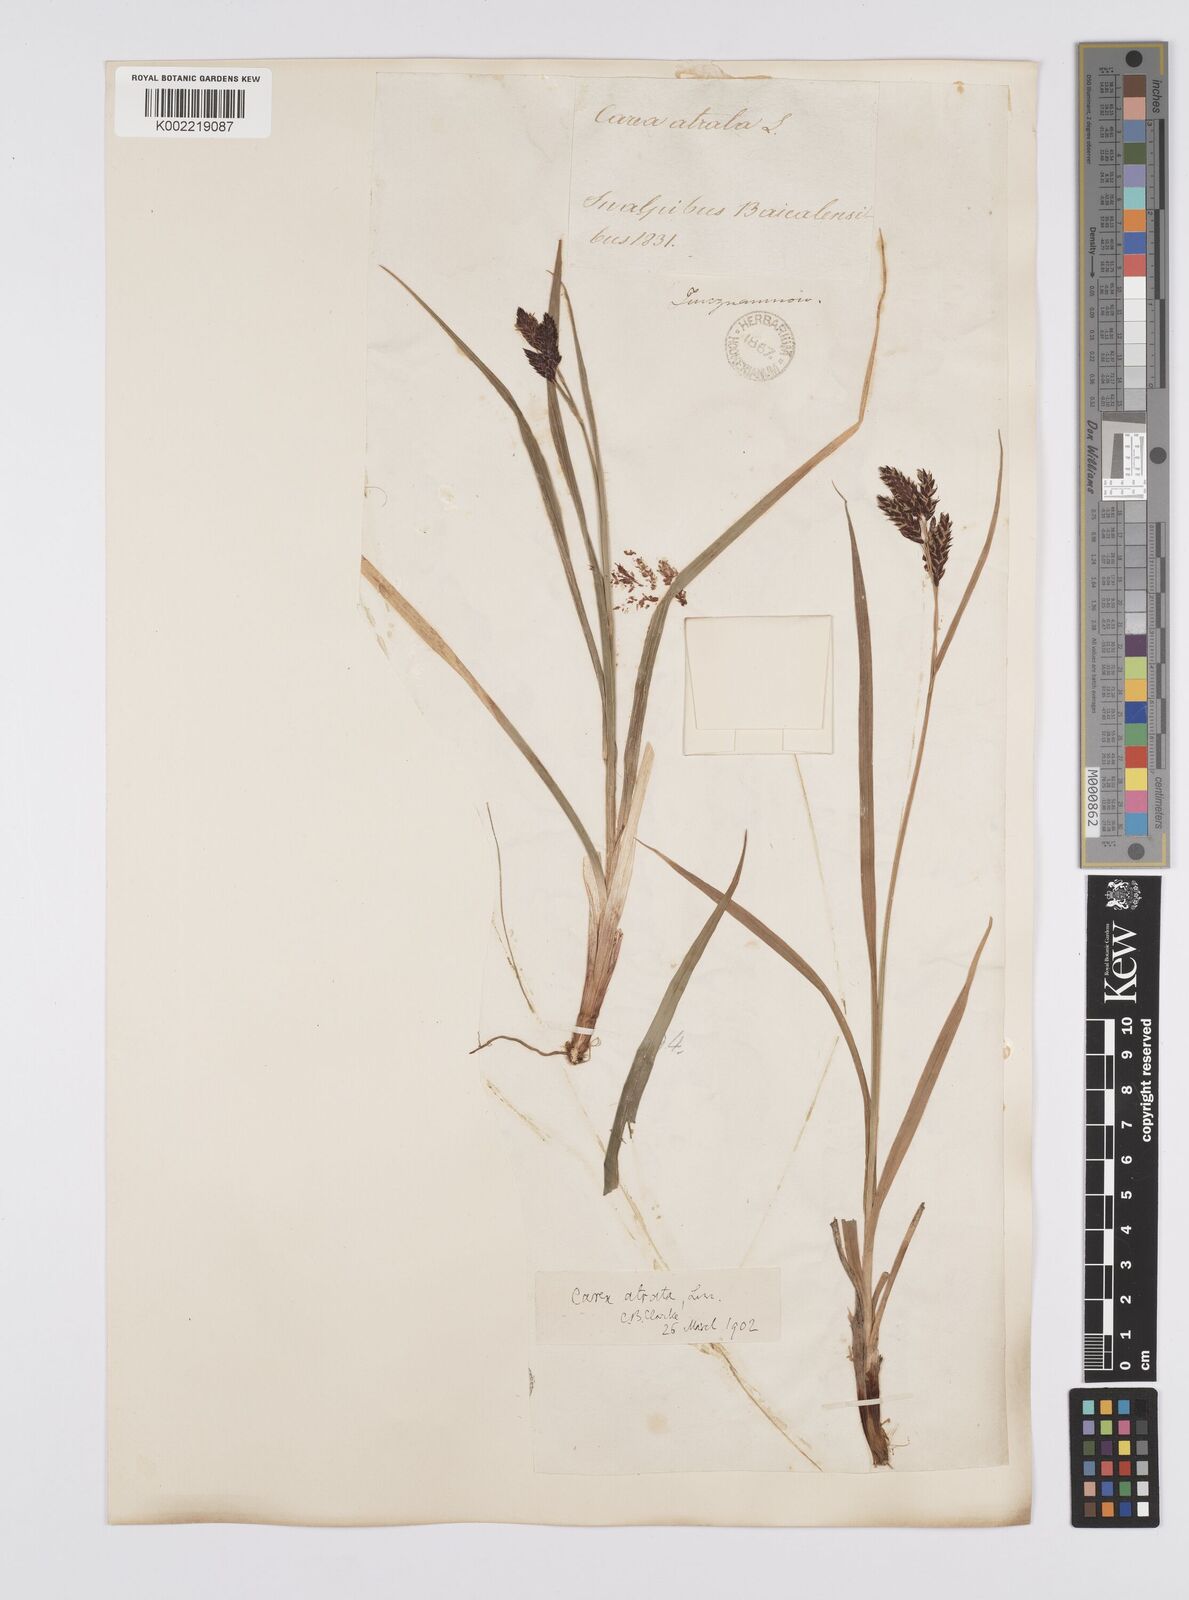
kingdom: Plantae
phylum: Tracheophyta
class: Liliopsida
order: Poales
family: Cyperaceae
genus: Carex
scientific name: Carex aterrima
